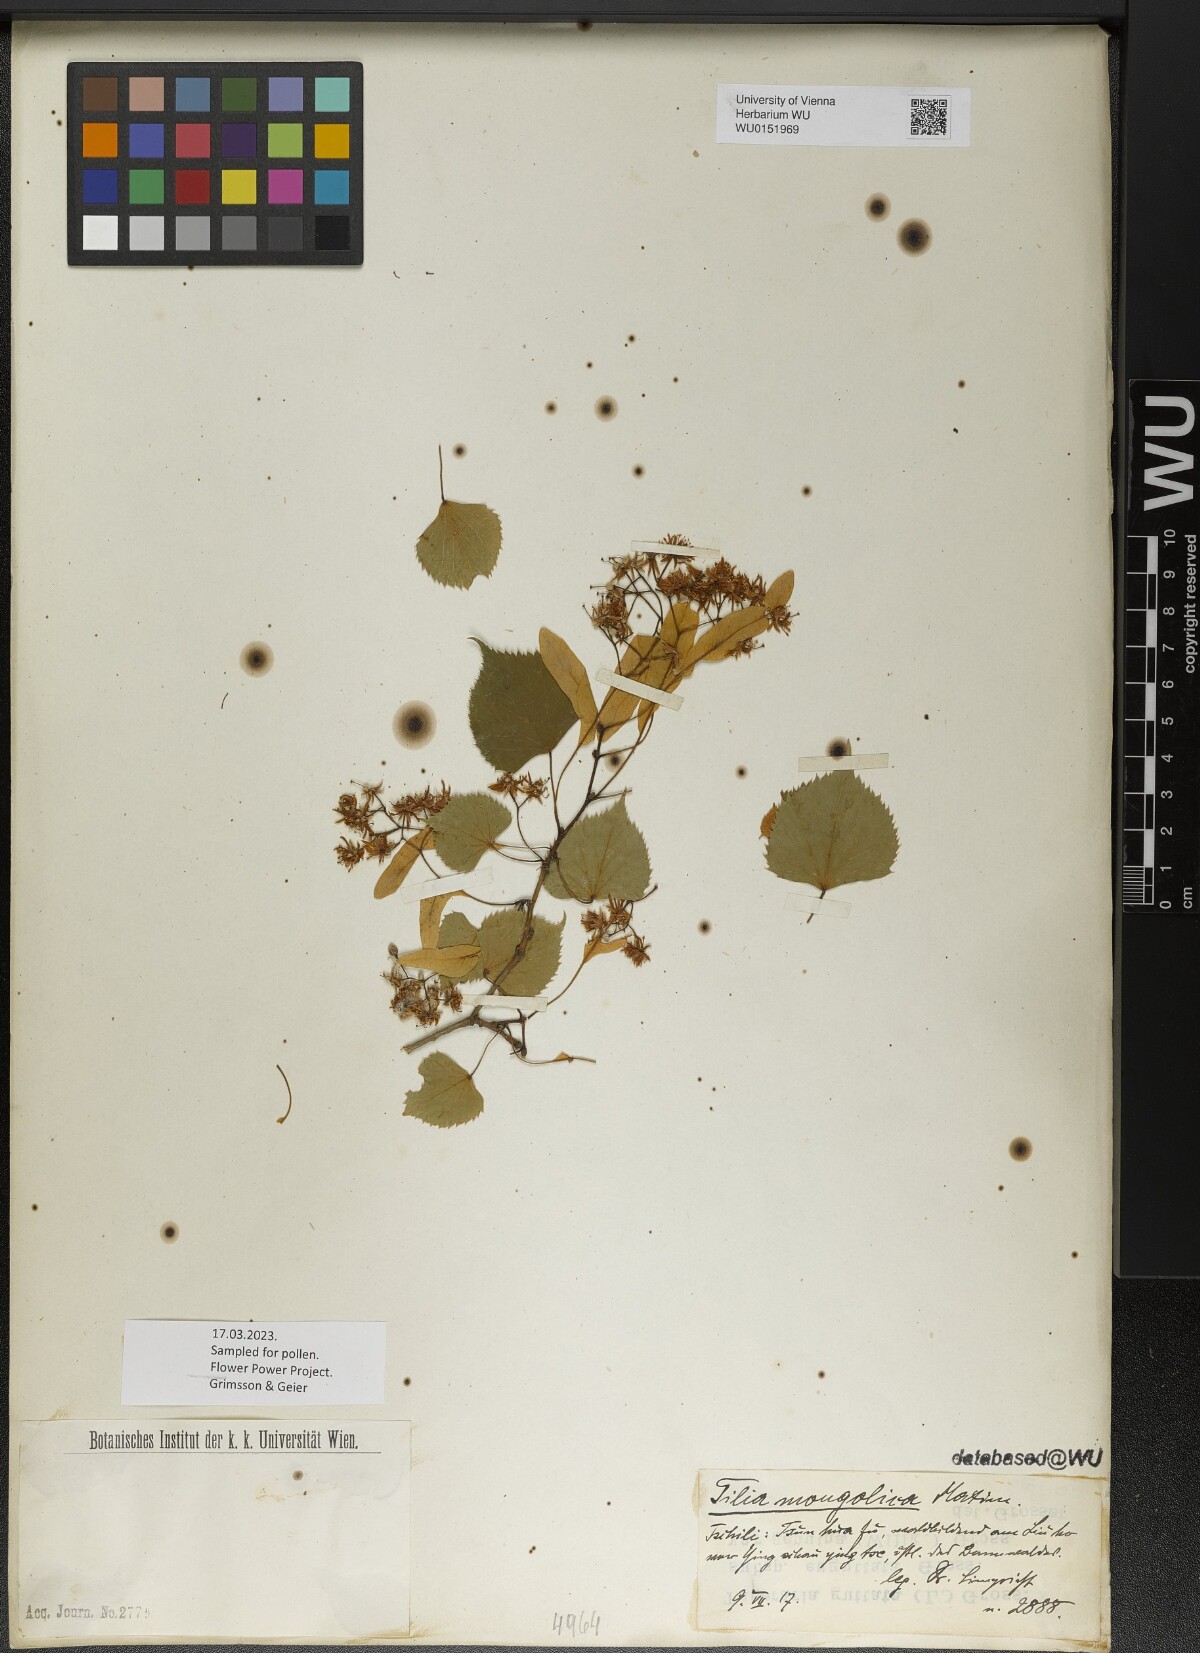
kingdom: Plantae
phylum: Tracheophyta
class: Magnoliopsida
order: Malvales
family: Malvaceae
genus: Tilia
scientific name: Tilia mongolica
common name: Mongolian lime
